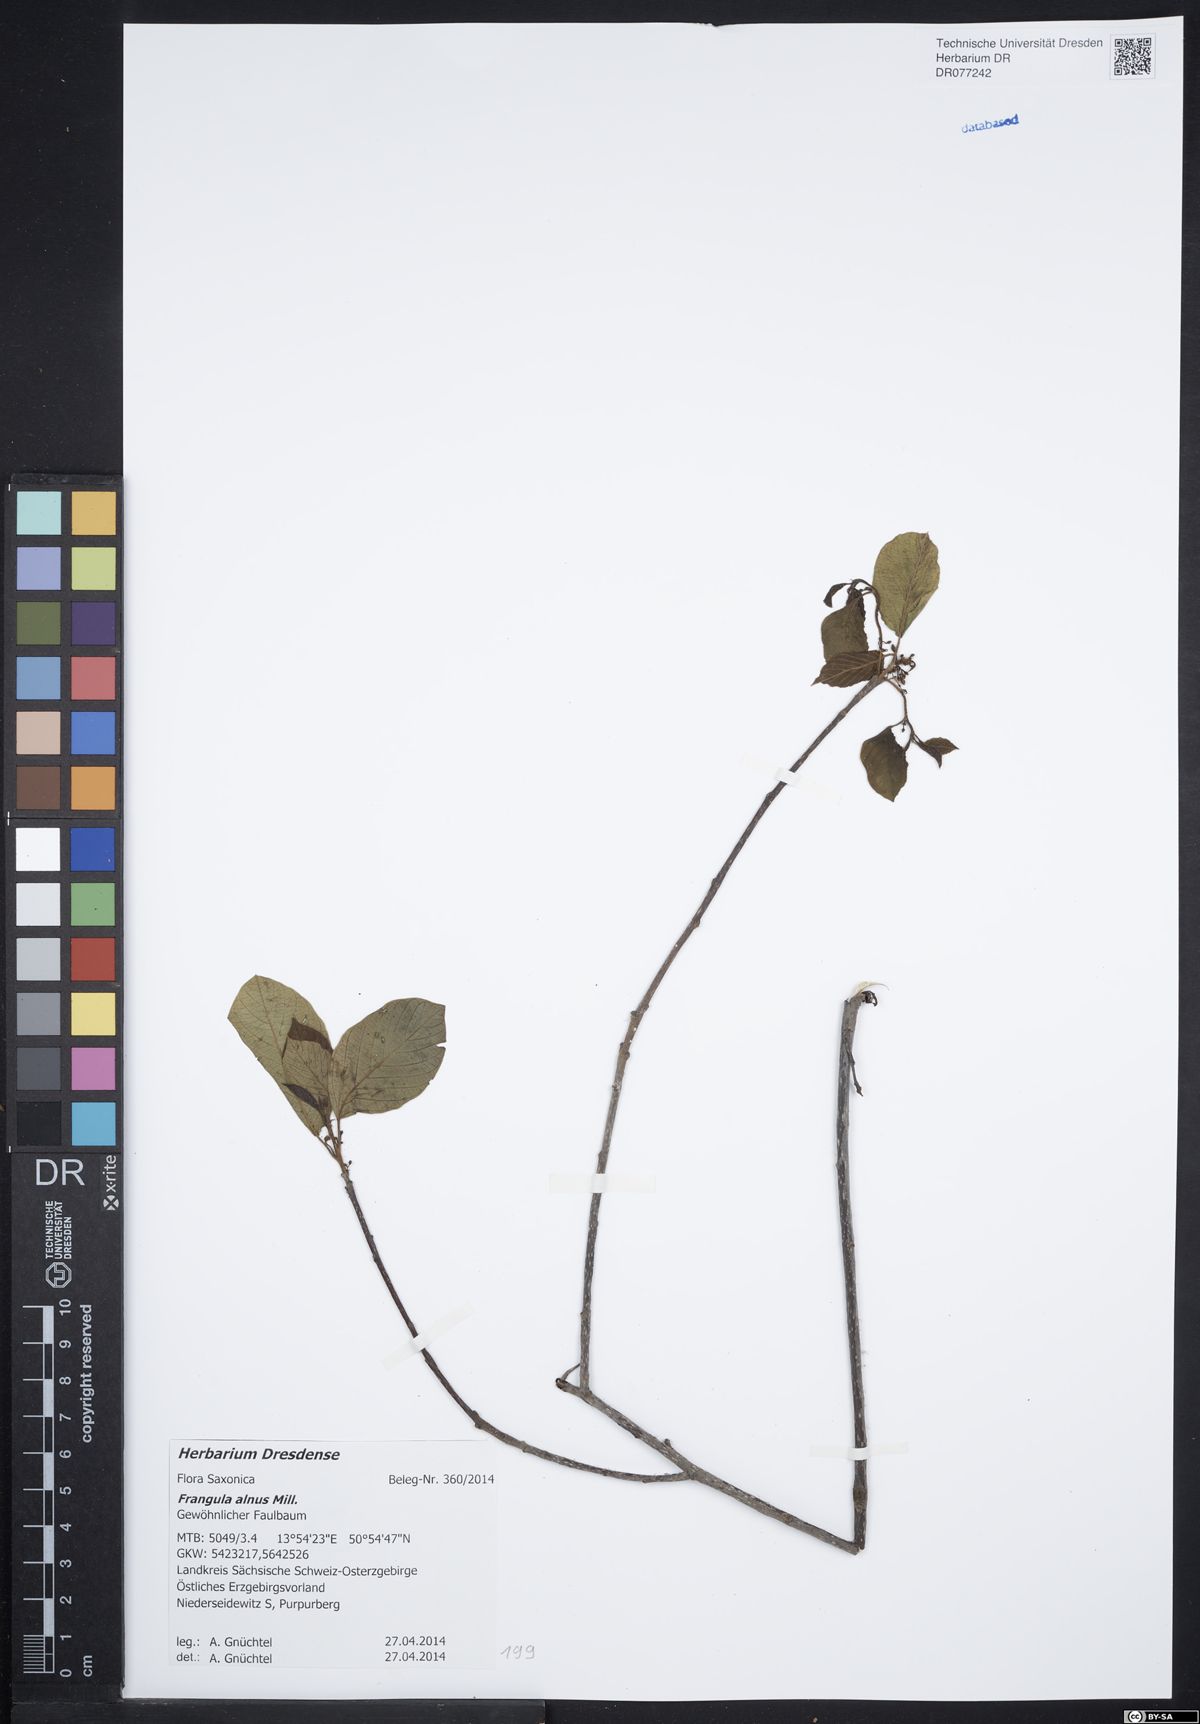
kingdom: Plantae
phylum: Tracheophyta
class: Magnoliopsida
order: Rosales
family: Rhamnaceae
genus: Frangula
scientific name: Frangula alnus
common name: Alder buckthorn
